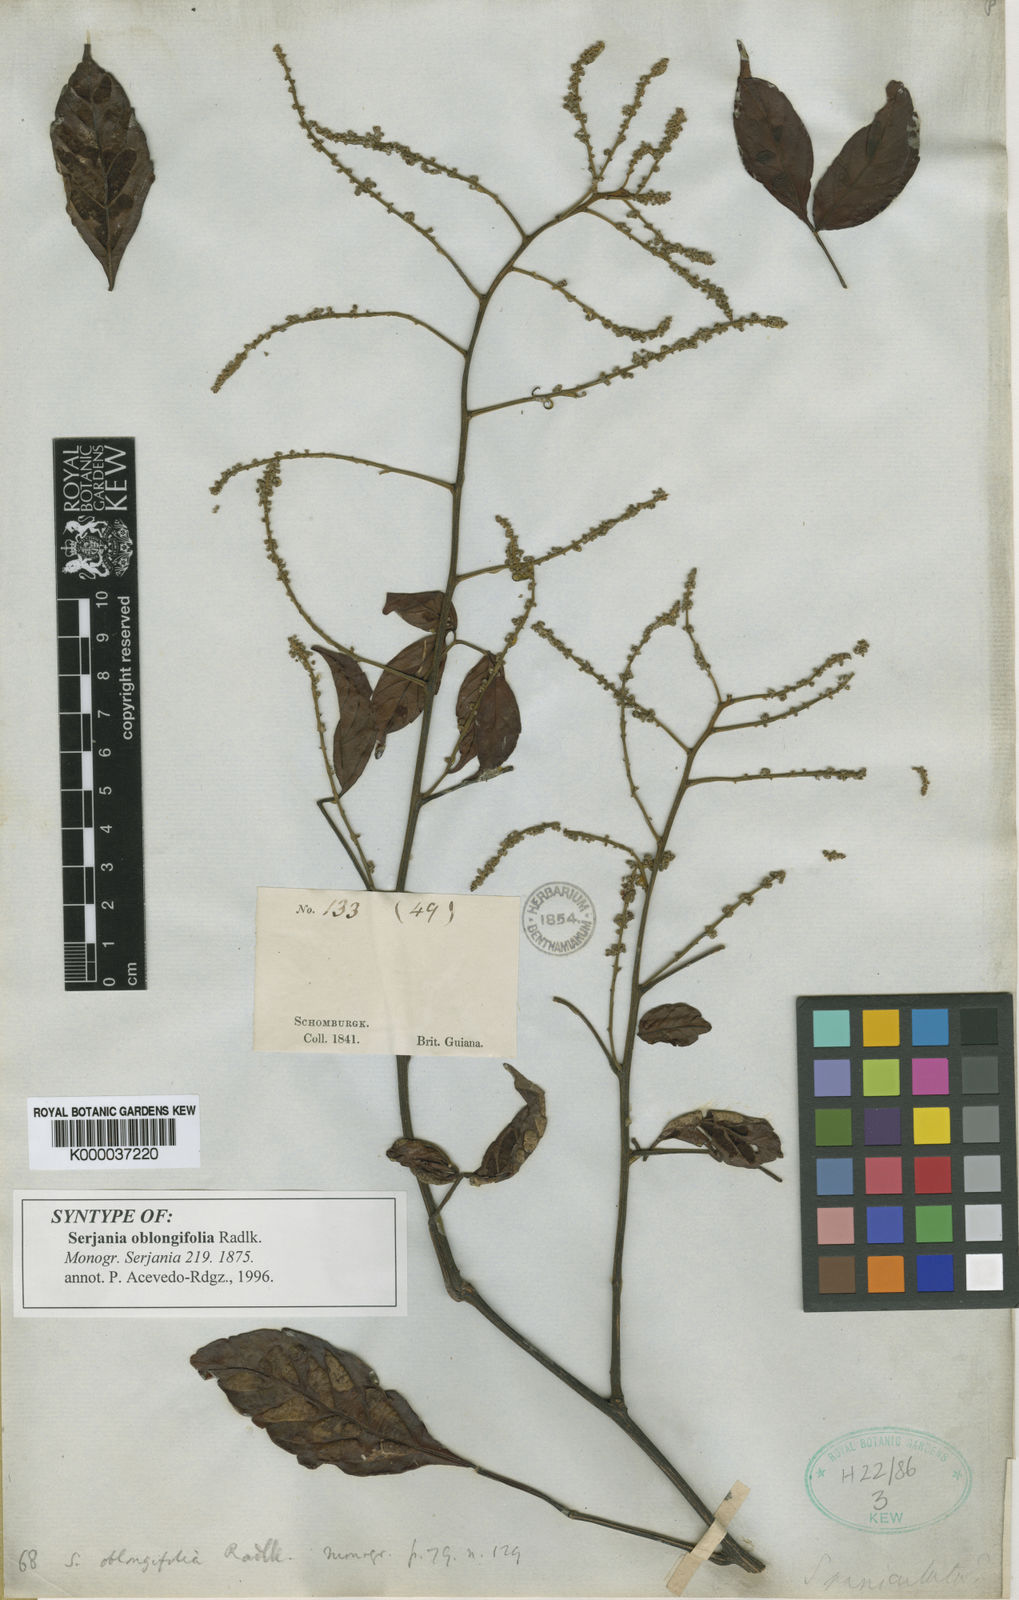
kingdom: Plantae
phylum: Tracheophyta
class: Magnoliopsida
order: Sapindales
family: Sapindaceae
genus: Serjania
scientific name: Serjania oblongifolia
